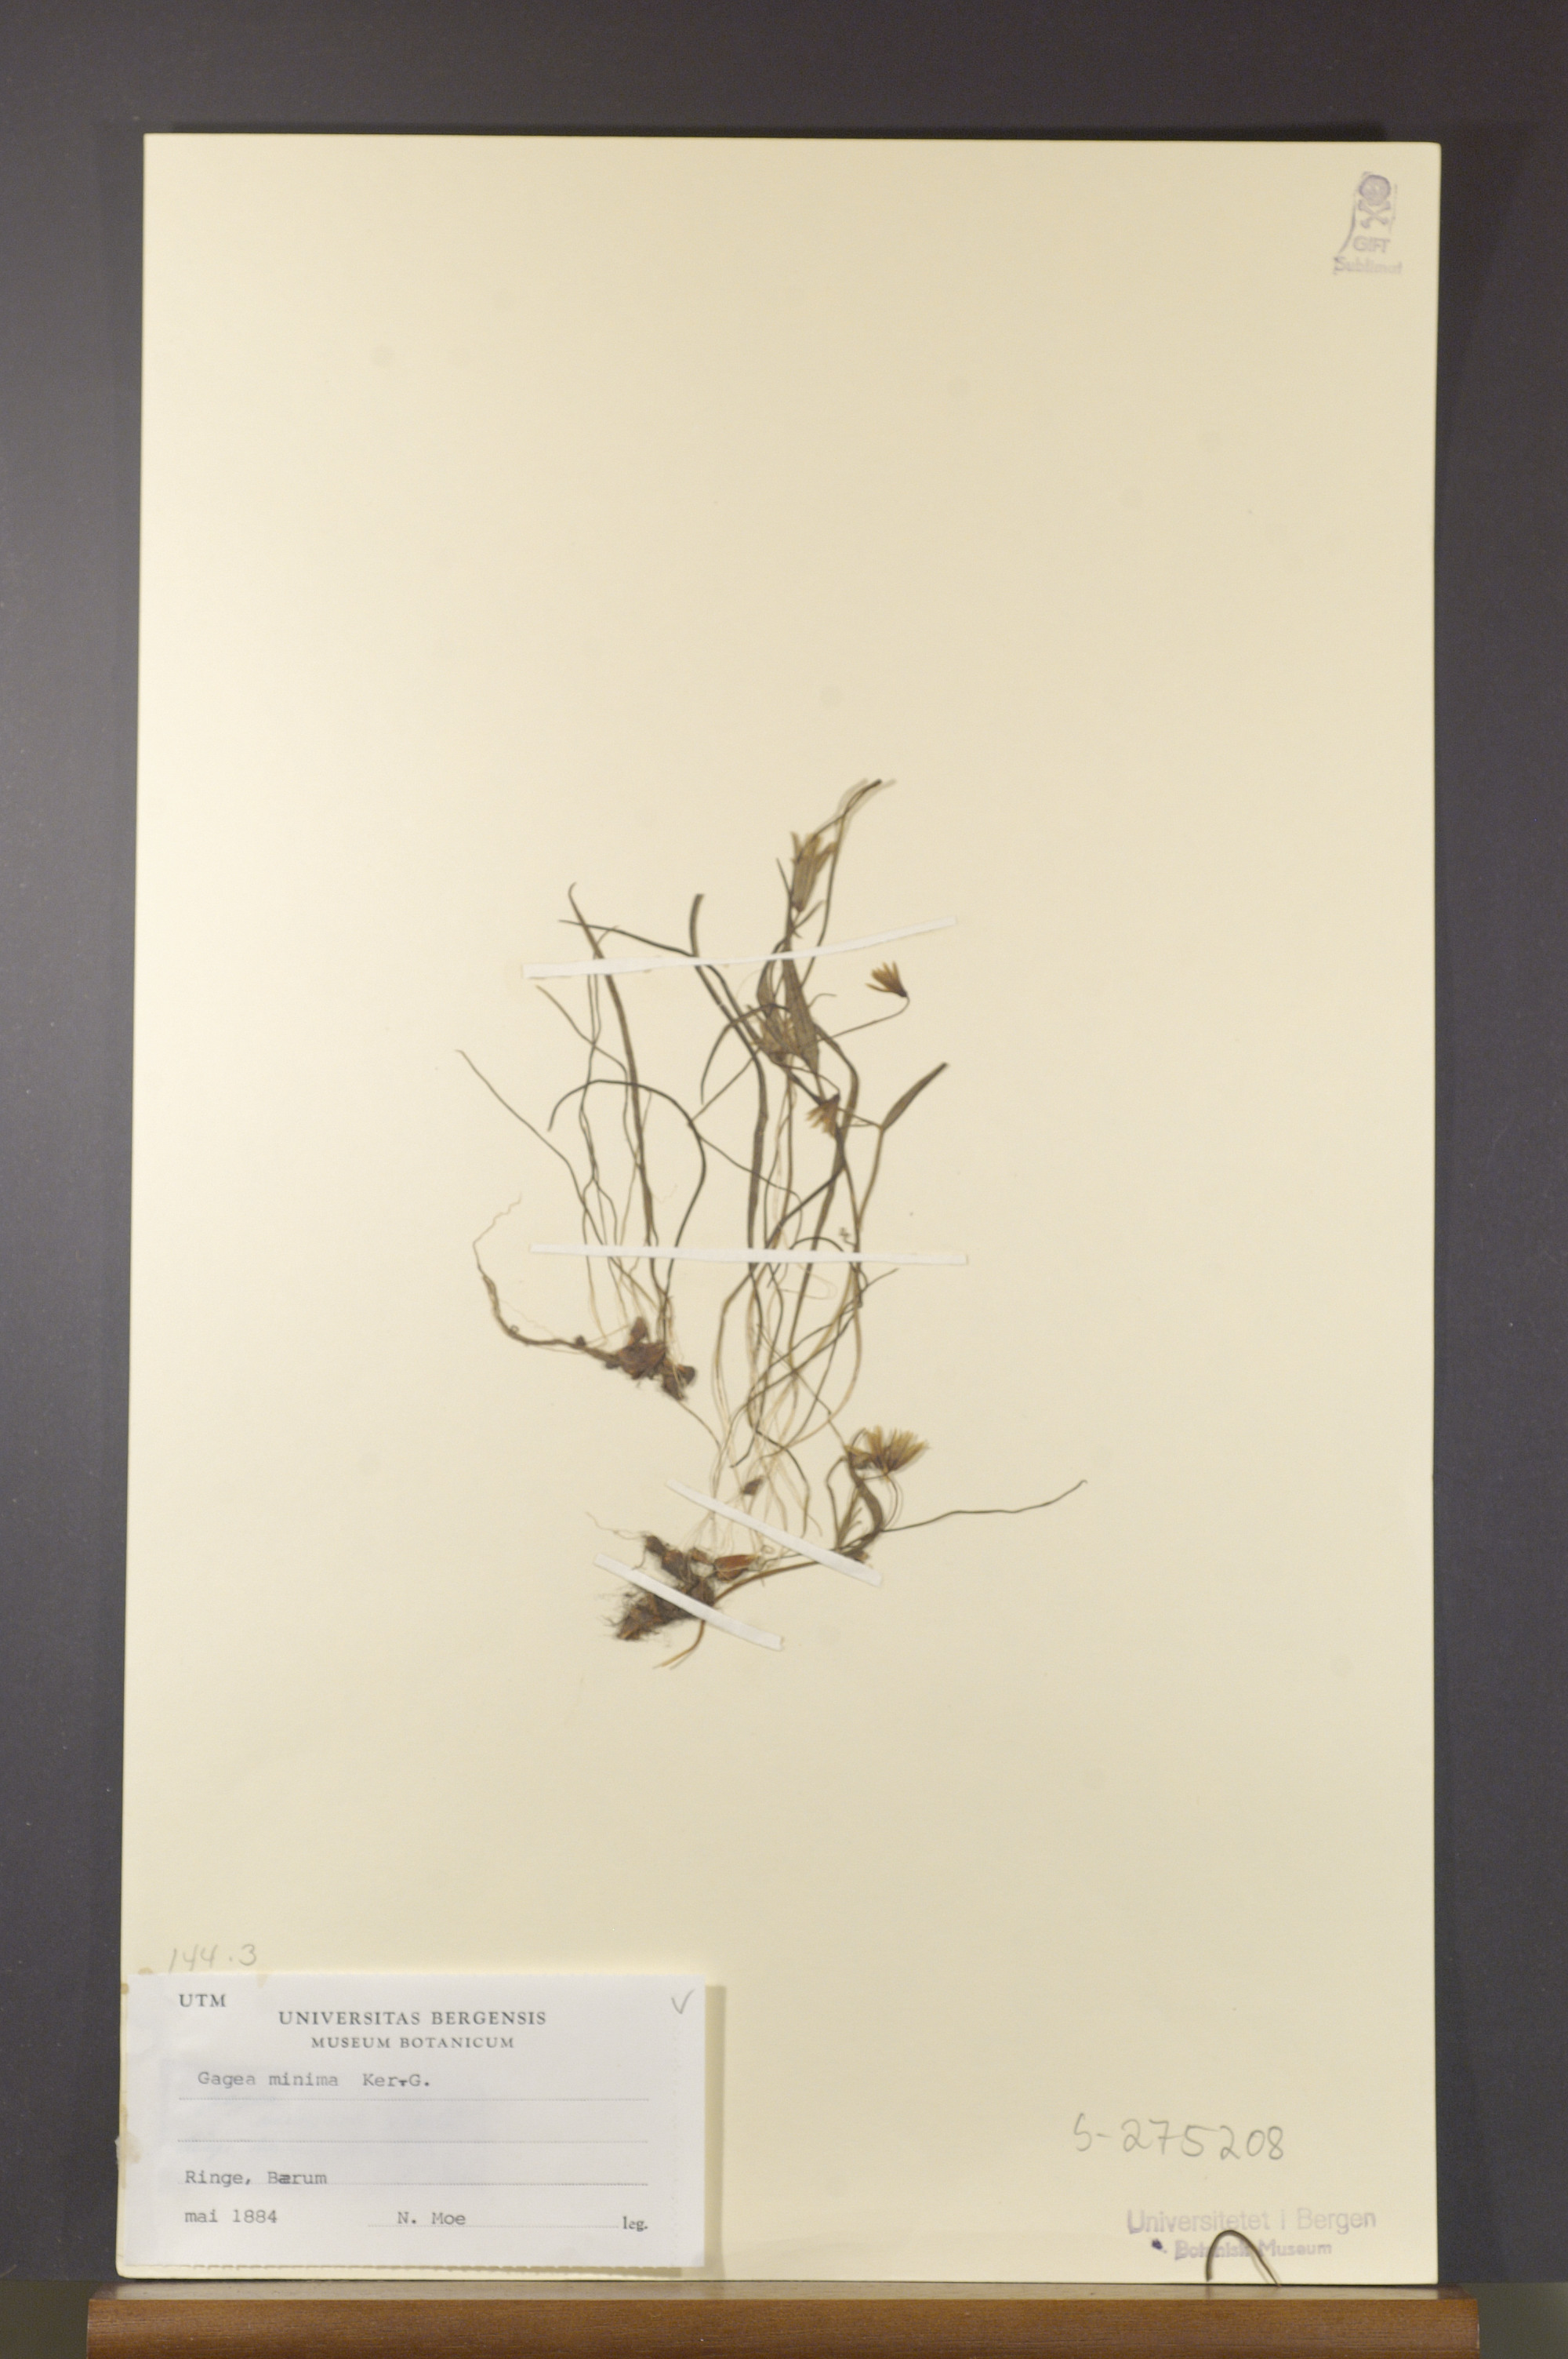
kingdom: Plantae
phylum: Tracheophyta
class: Liliopsida
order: Liliales
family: Liliaceae
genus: Gagea
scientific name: Gagea minima
